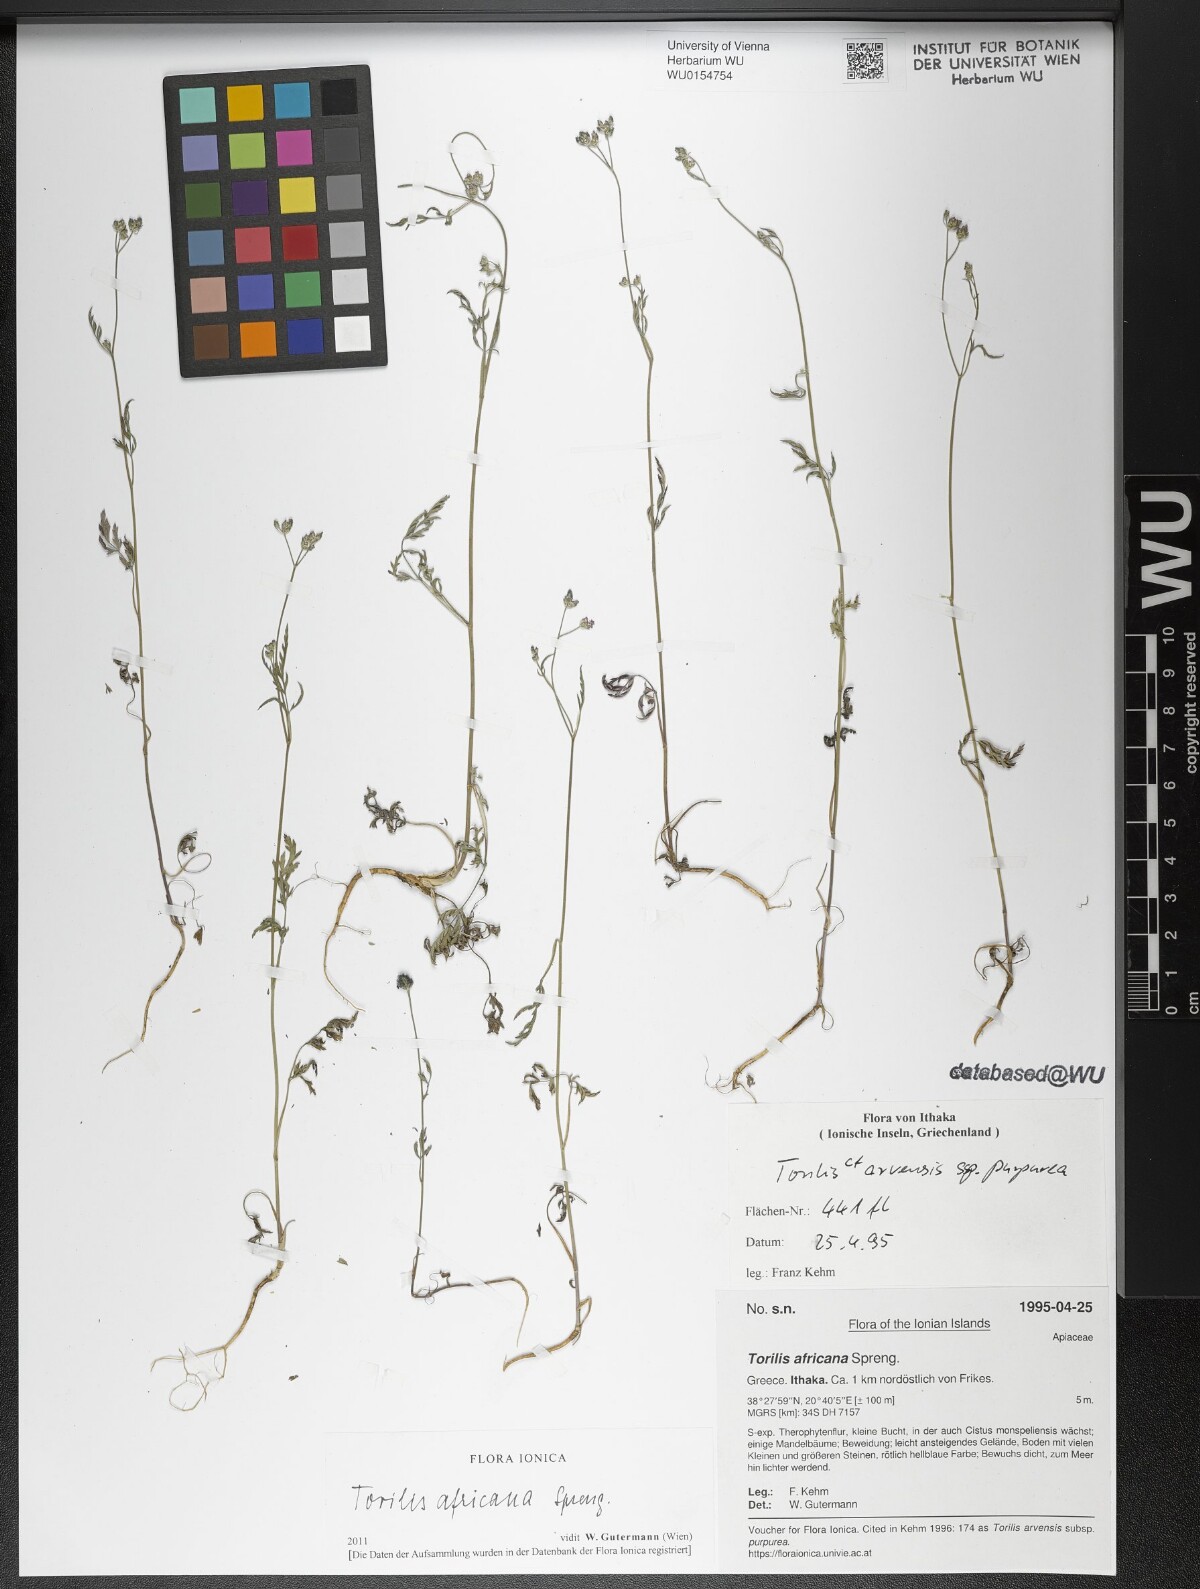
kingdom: Plantae
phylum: Tracheophyta
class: Magnoliopsida
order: Apiales
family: Apiaceae
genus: Torilis
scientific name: Torilis africana
